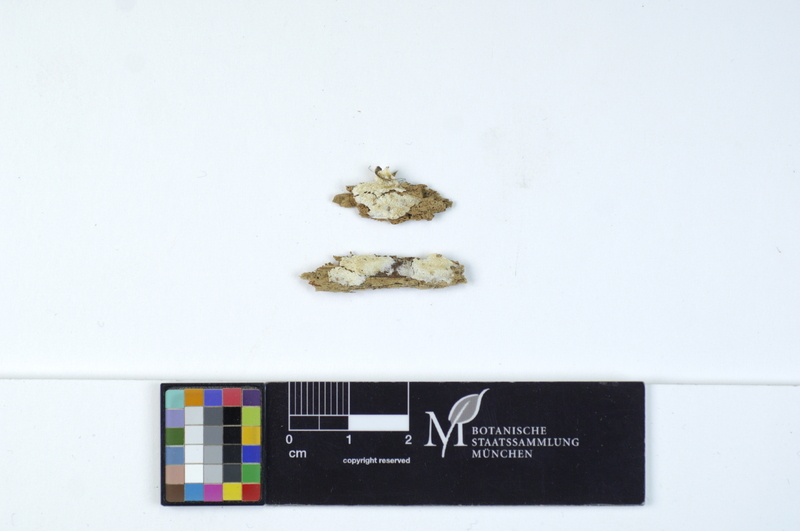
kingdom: Plantae
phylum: Tracheophyta
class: Pinopsida
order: Pinales
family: Pinaceae
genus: Pinus
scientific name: Pinus
